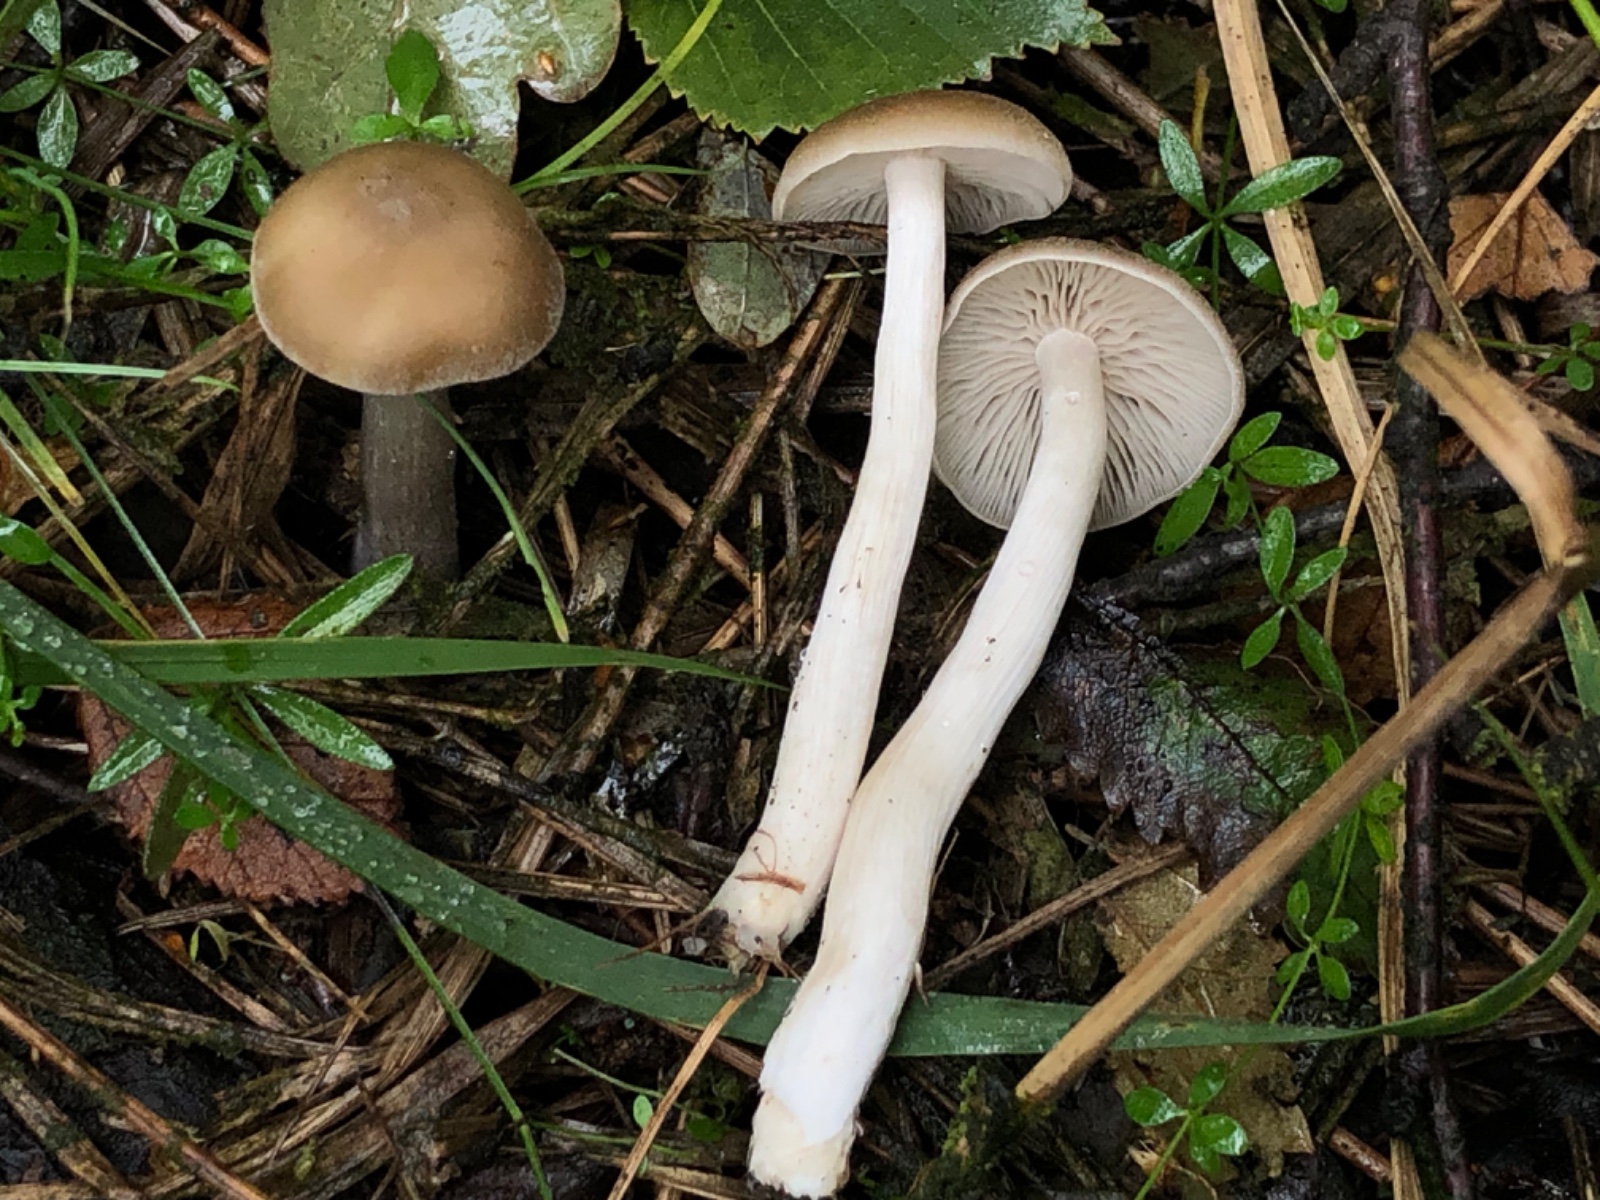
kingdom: Fungi
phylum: Basidiomycota
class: Agaricomycetes
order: Agaricales
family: Entolomataceae
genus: Entoloma
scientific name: Entoloma sericatum
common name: rank rødblad
